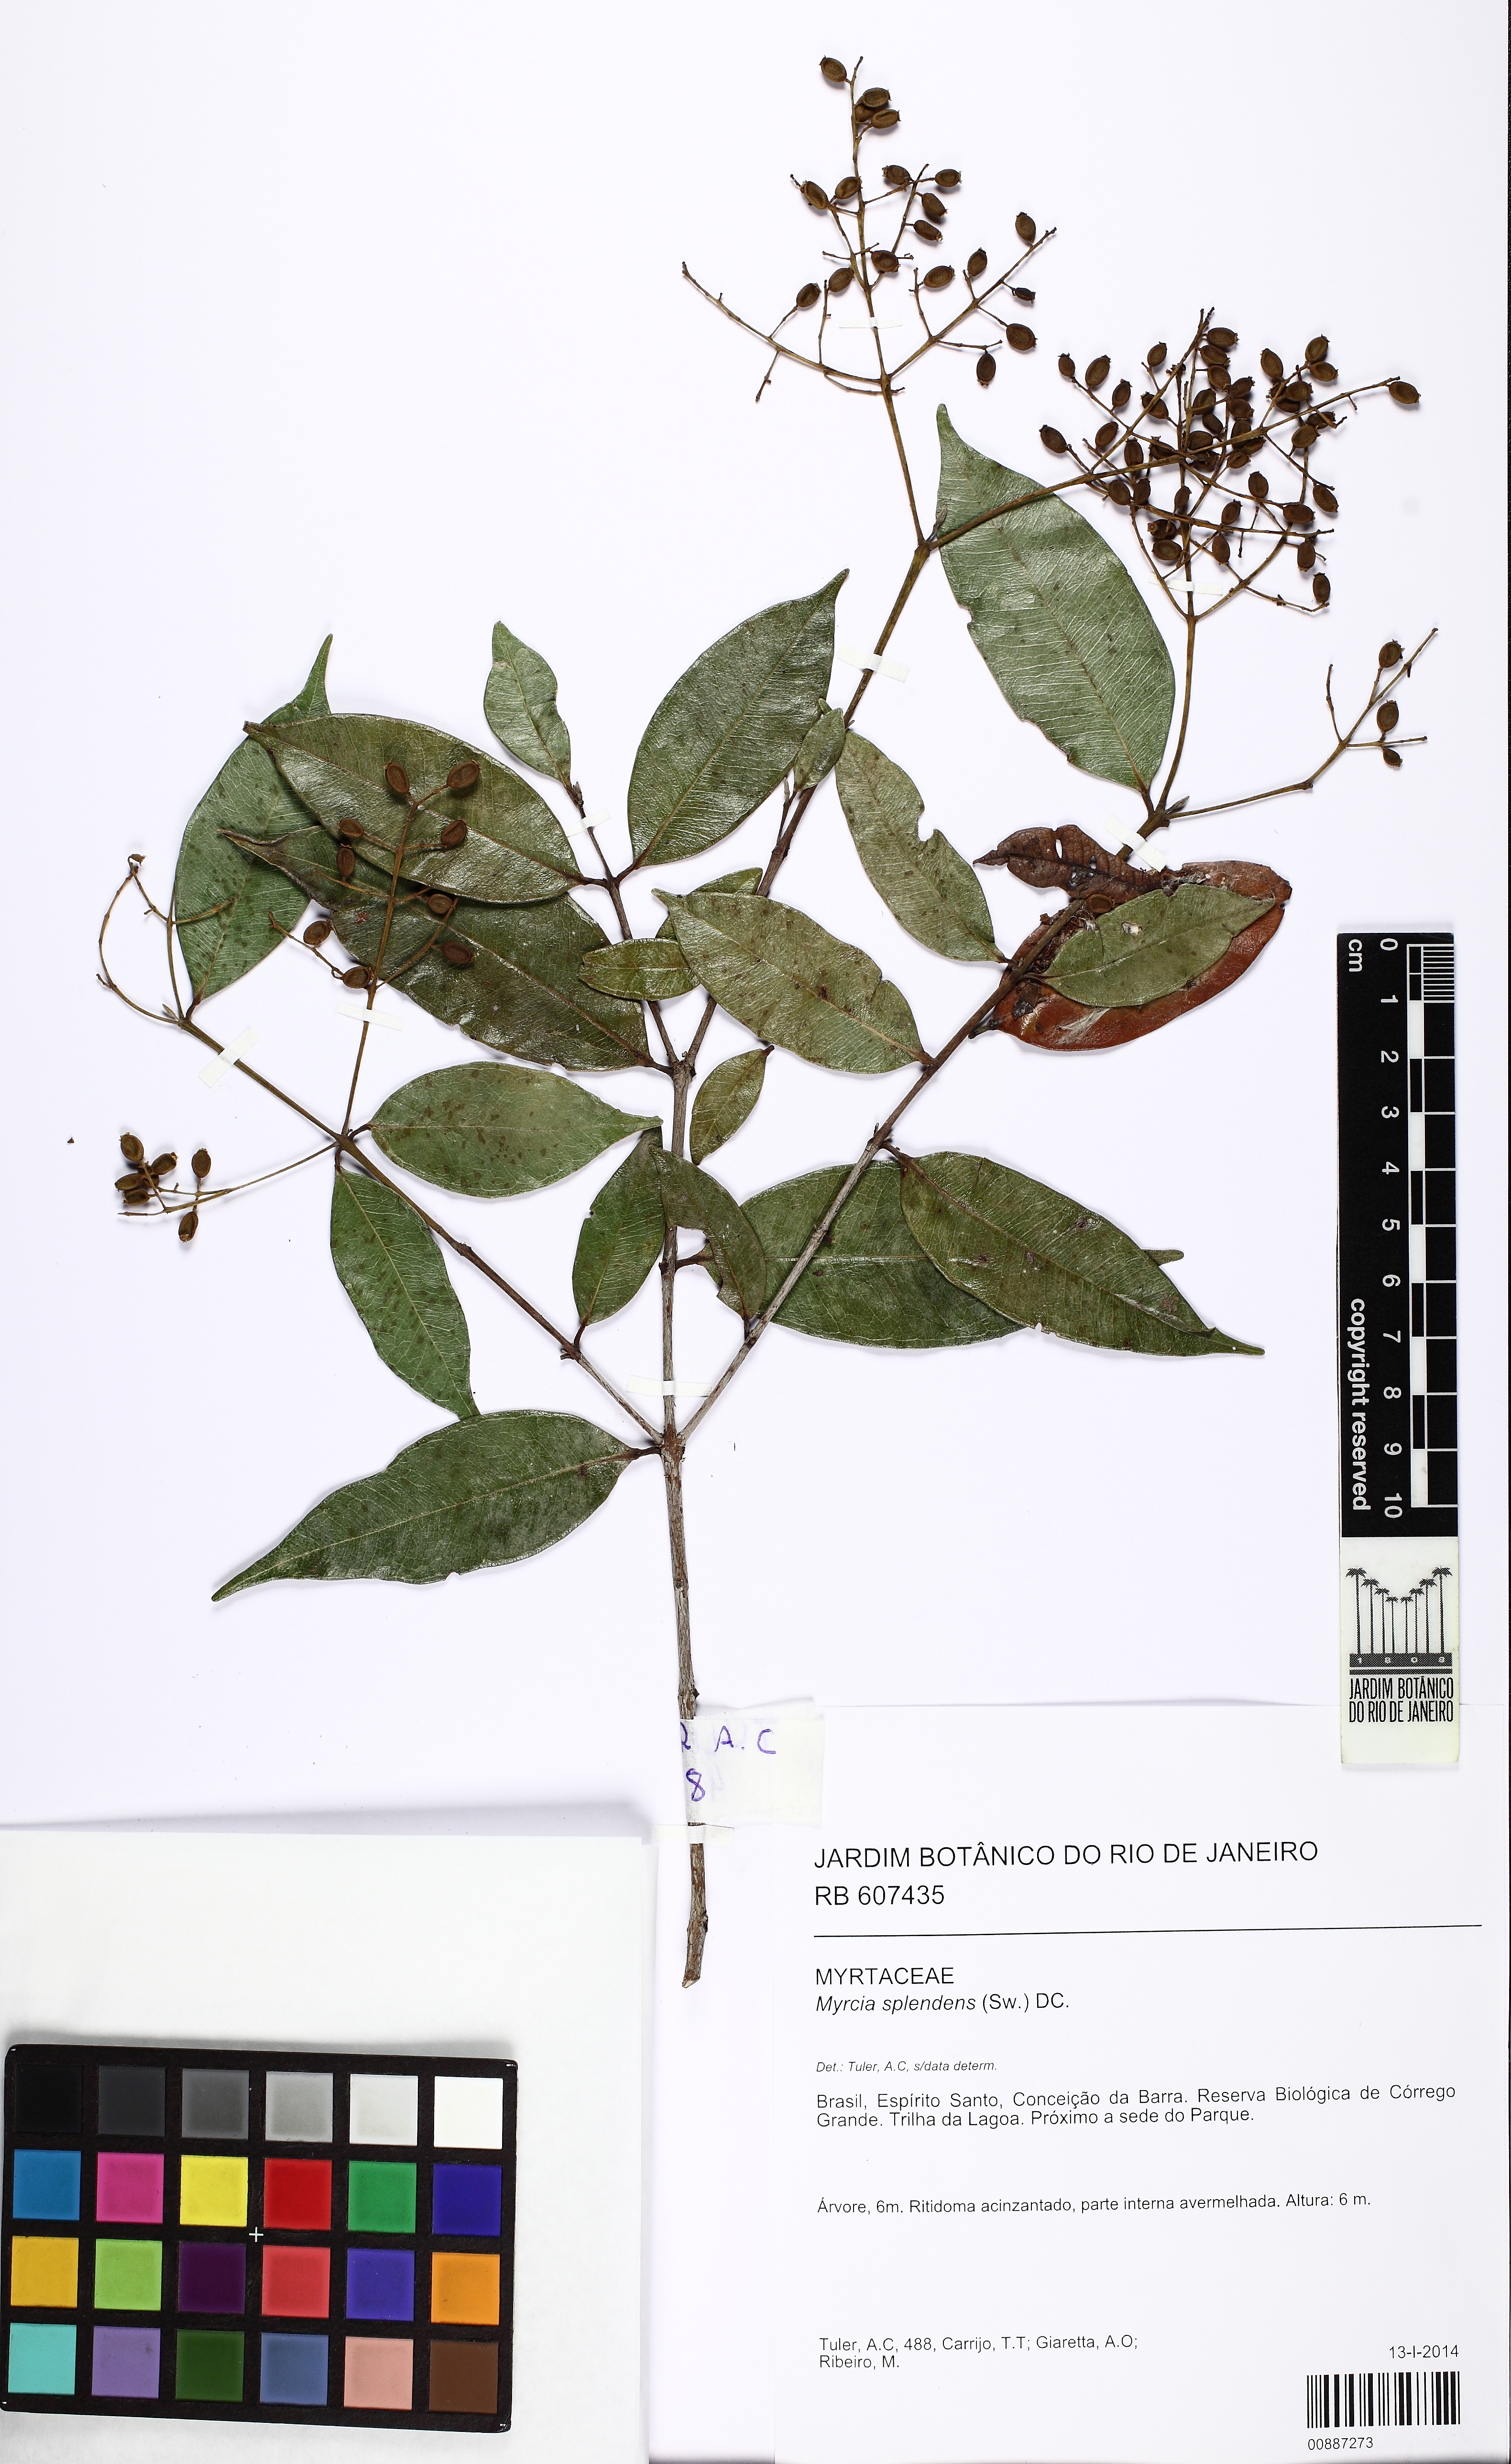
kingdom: Plantae
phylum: Tracheophyta
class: Magnoliopsida
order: Myrtales
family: Myrtaceae
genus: Myrcia
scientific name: Myrcia splendens
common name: Surinam cherry
